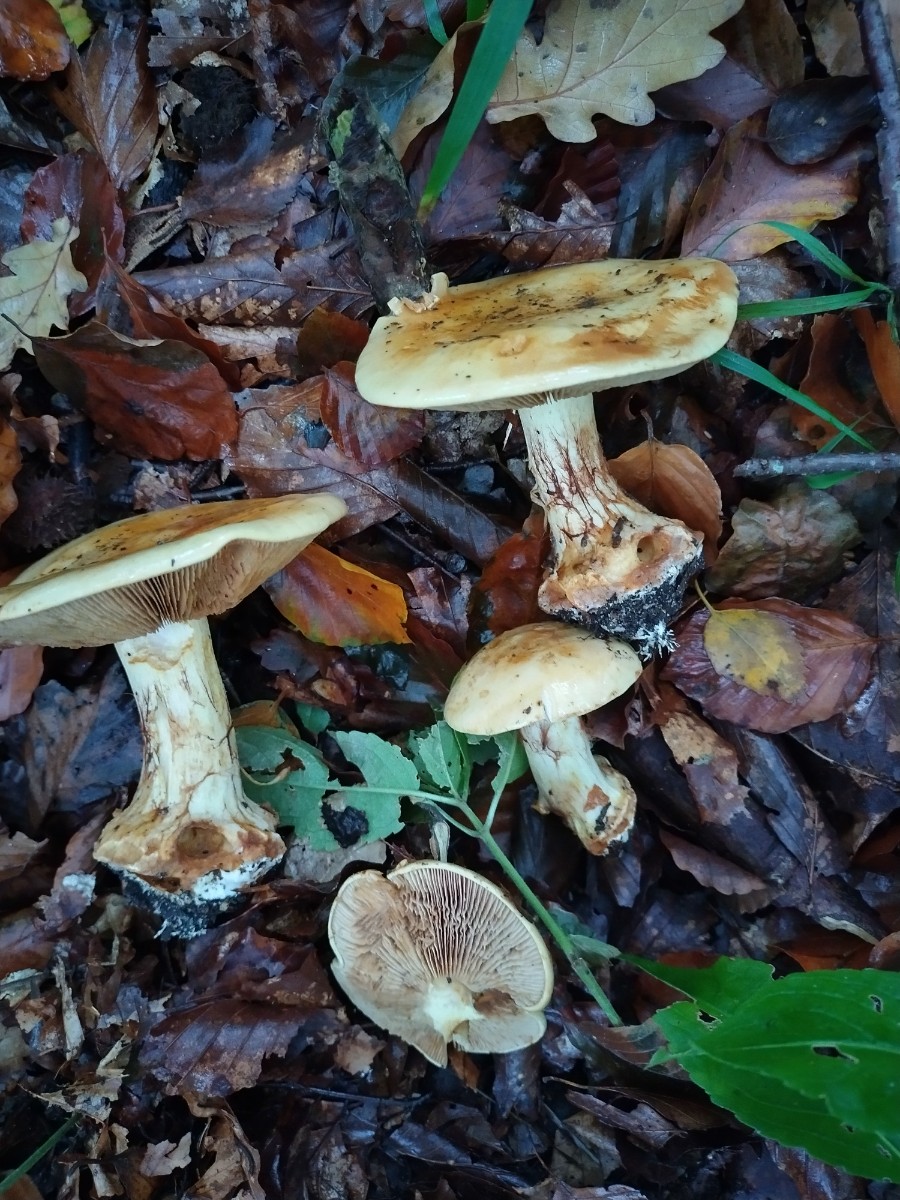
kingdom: Fungi
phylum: Basidiomycota
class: Agaricomycetes
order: Agaricales
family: Cortinariaceae
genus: Calonarius
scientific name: Calonarius humolens
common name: radise-slørhat
